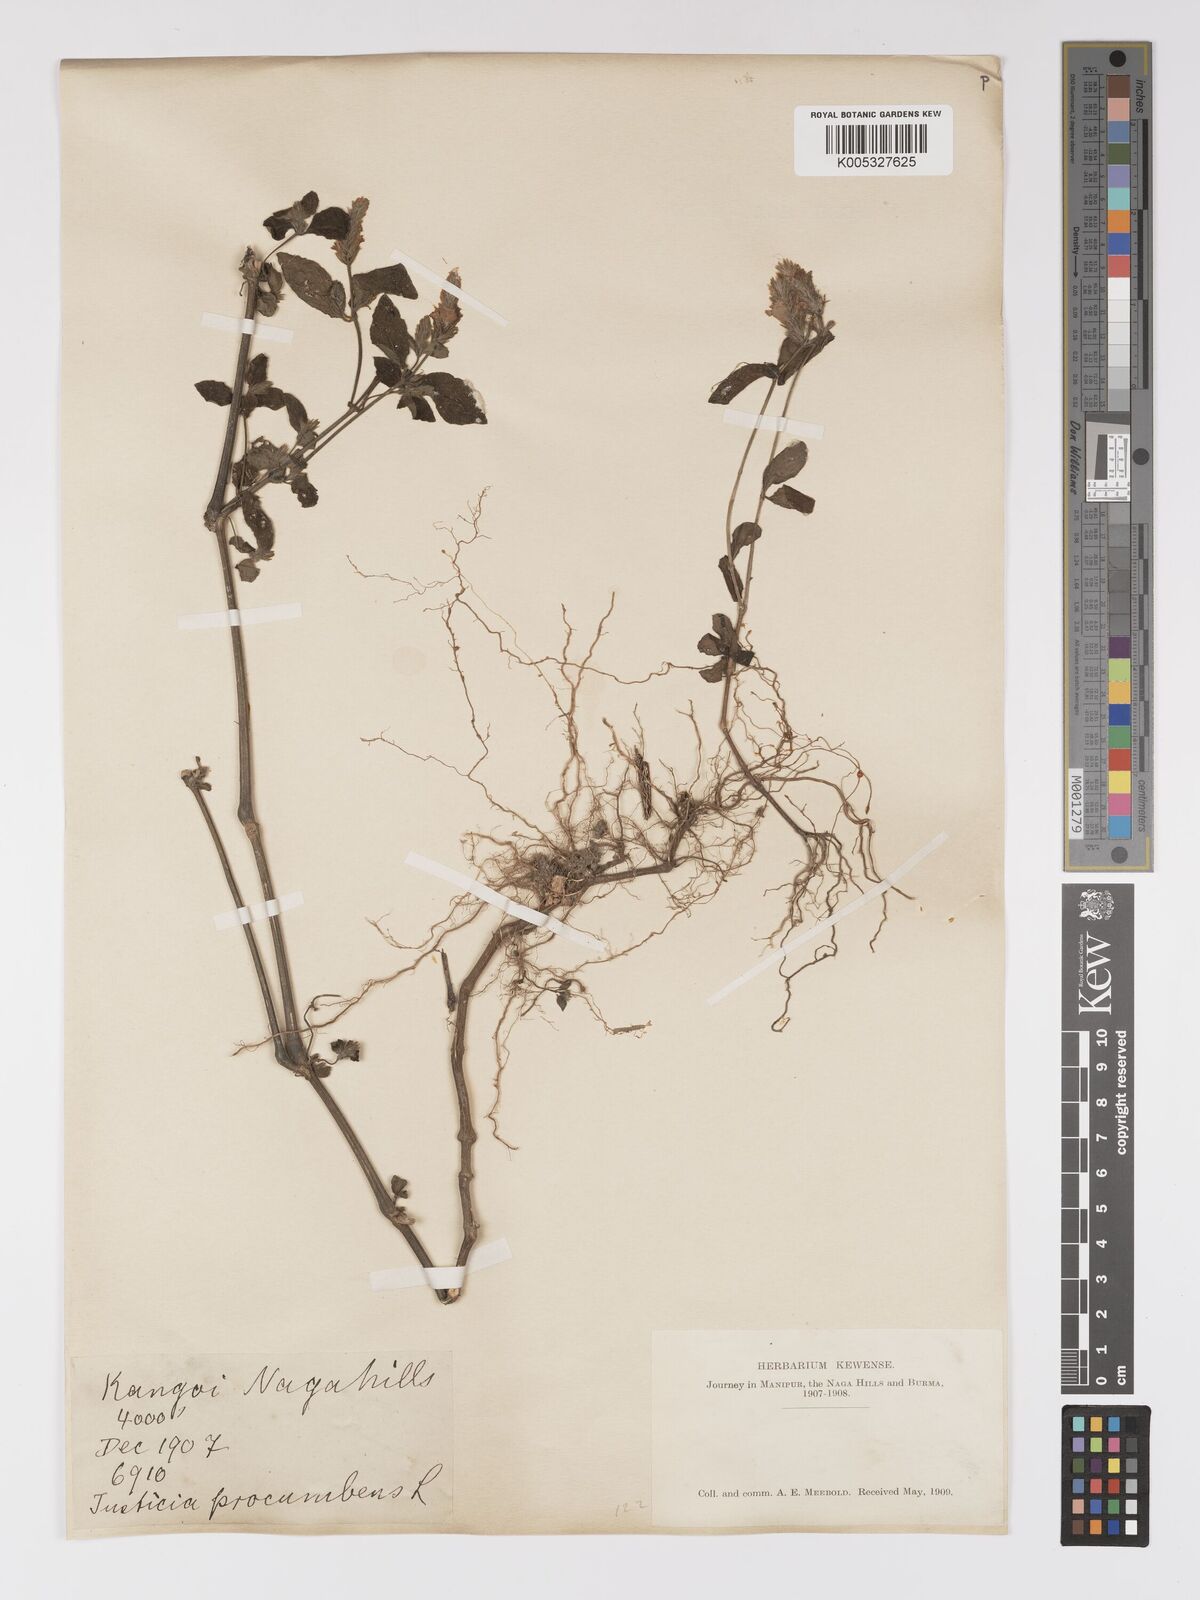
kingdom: Plantae
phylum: Tracheophyta
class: Magnoliopsida
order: Lamiales
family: Acanthaceae
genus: Rostellularia
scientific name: Rostellularia latispica
